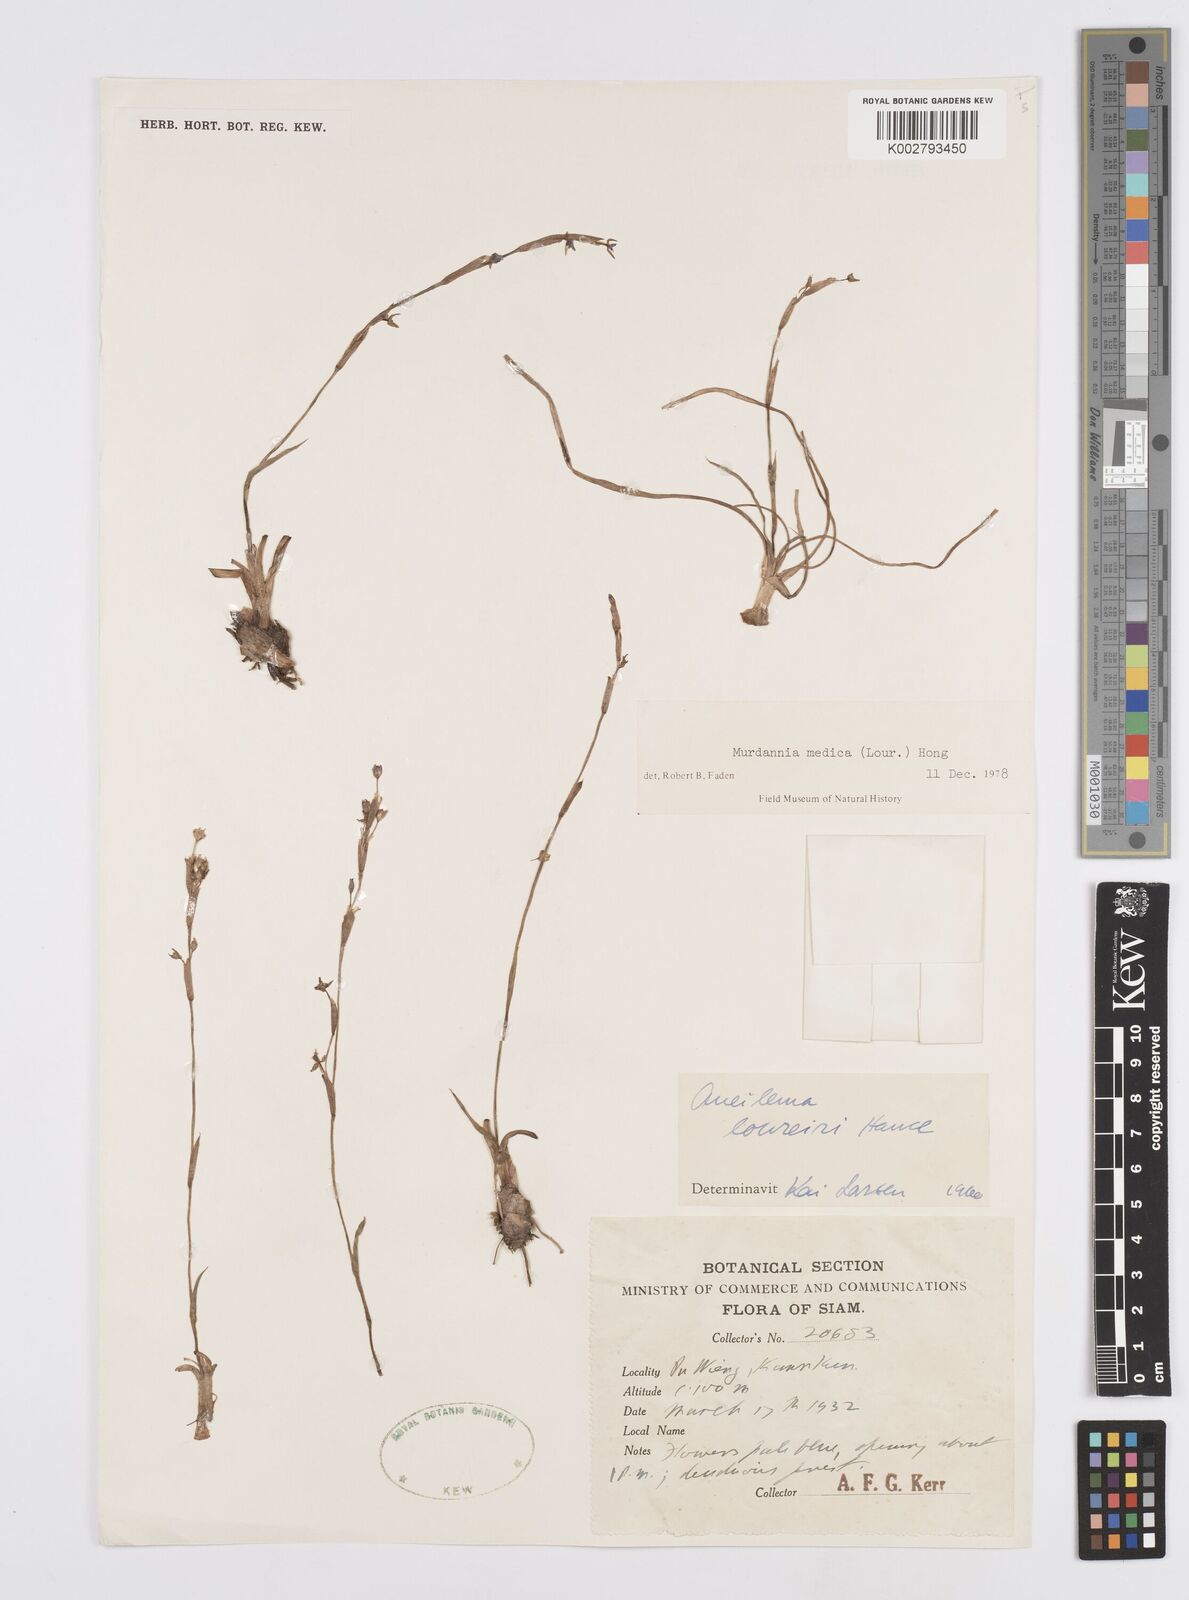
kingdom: Plantae
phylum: Tracheophyta
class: Liliopsida
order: Commelinales
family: Commelinaceae
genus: Murdannia
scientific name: Murdannia medica
